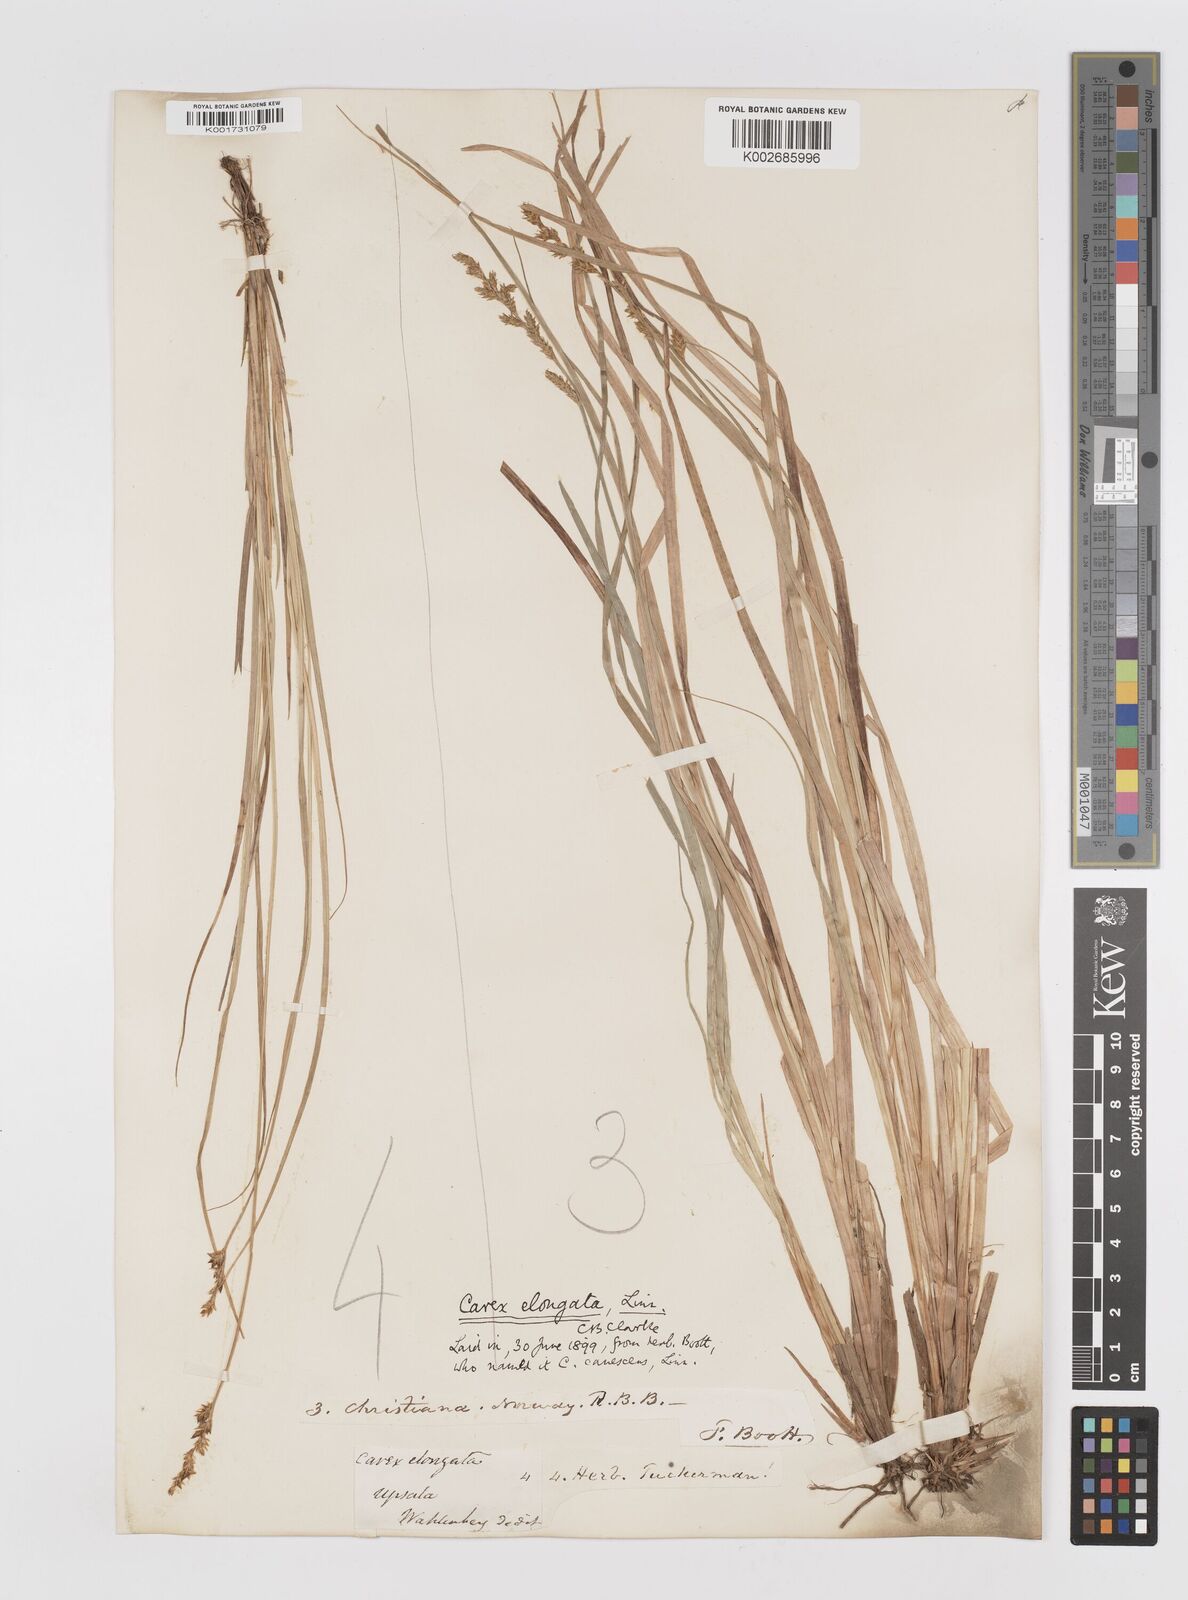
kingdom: Plantae
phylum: Tracheophyta
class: Liliopsida
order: Poales
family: Cyperaceae
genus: Carex
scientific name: Carex elongata
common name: Elongated sedge
